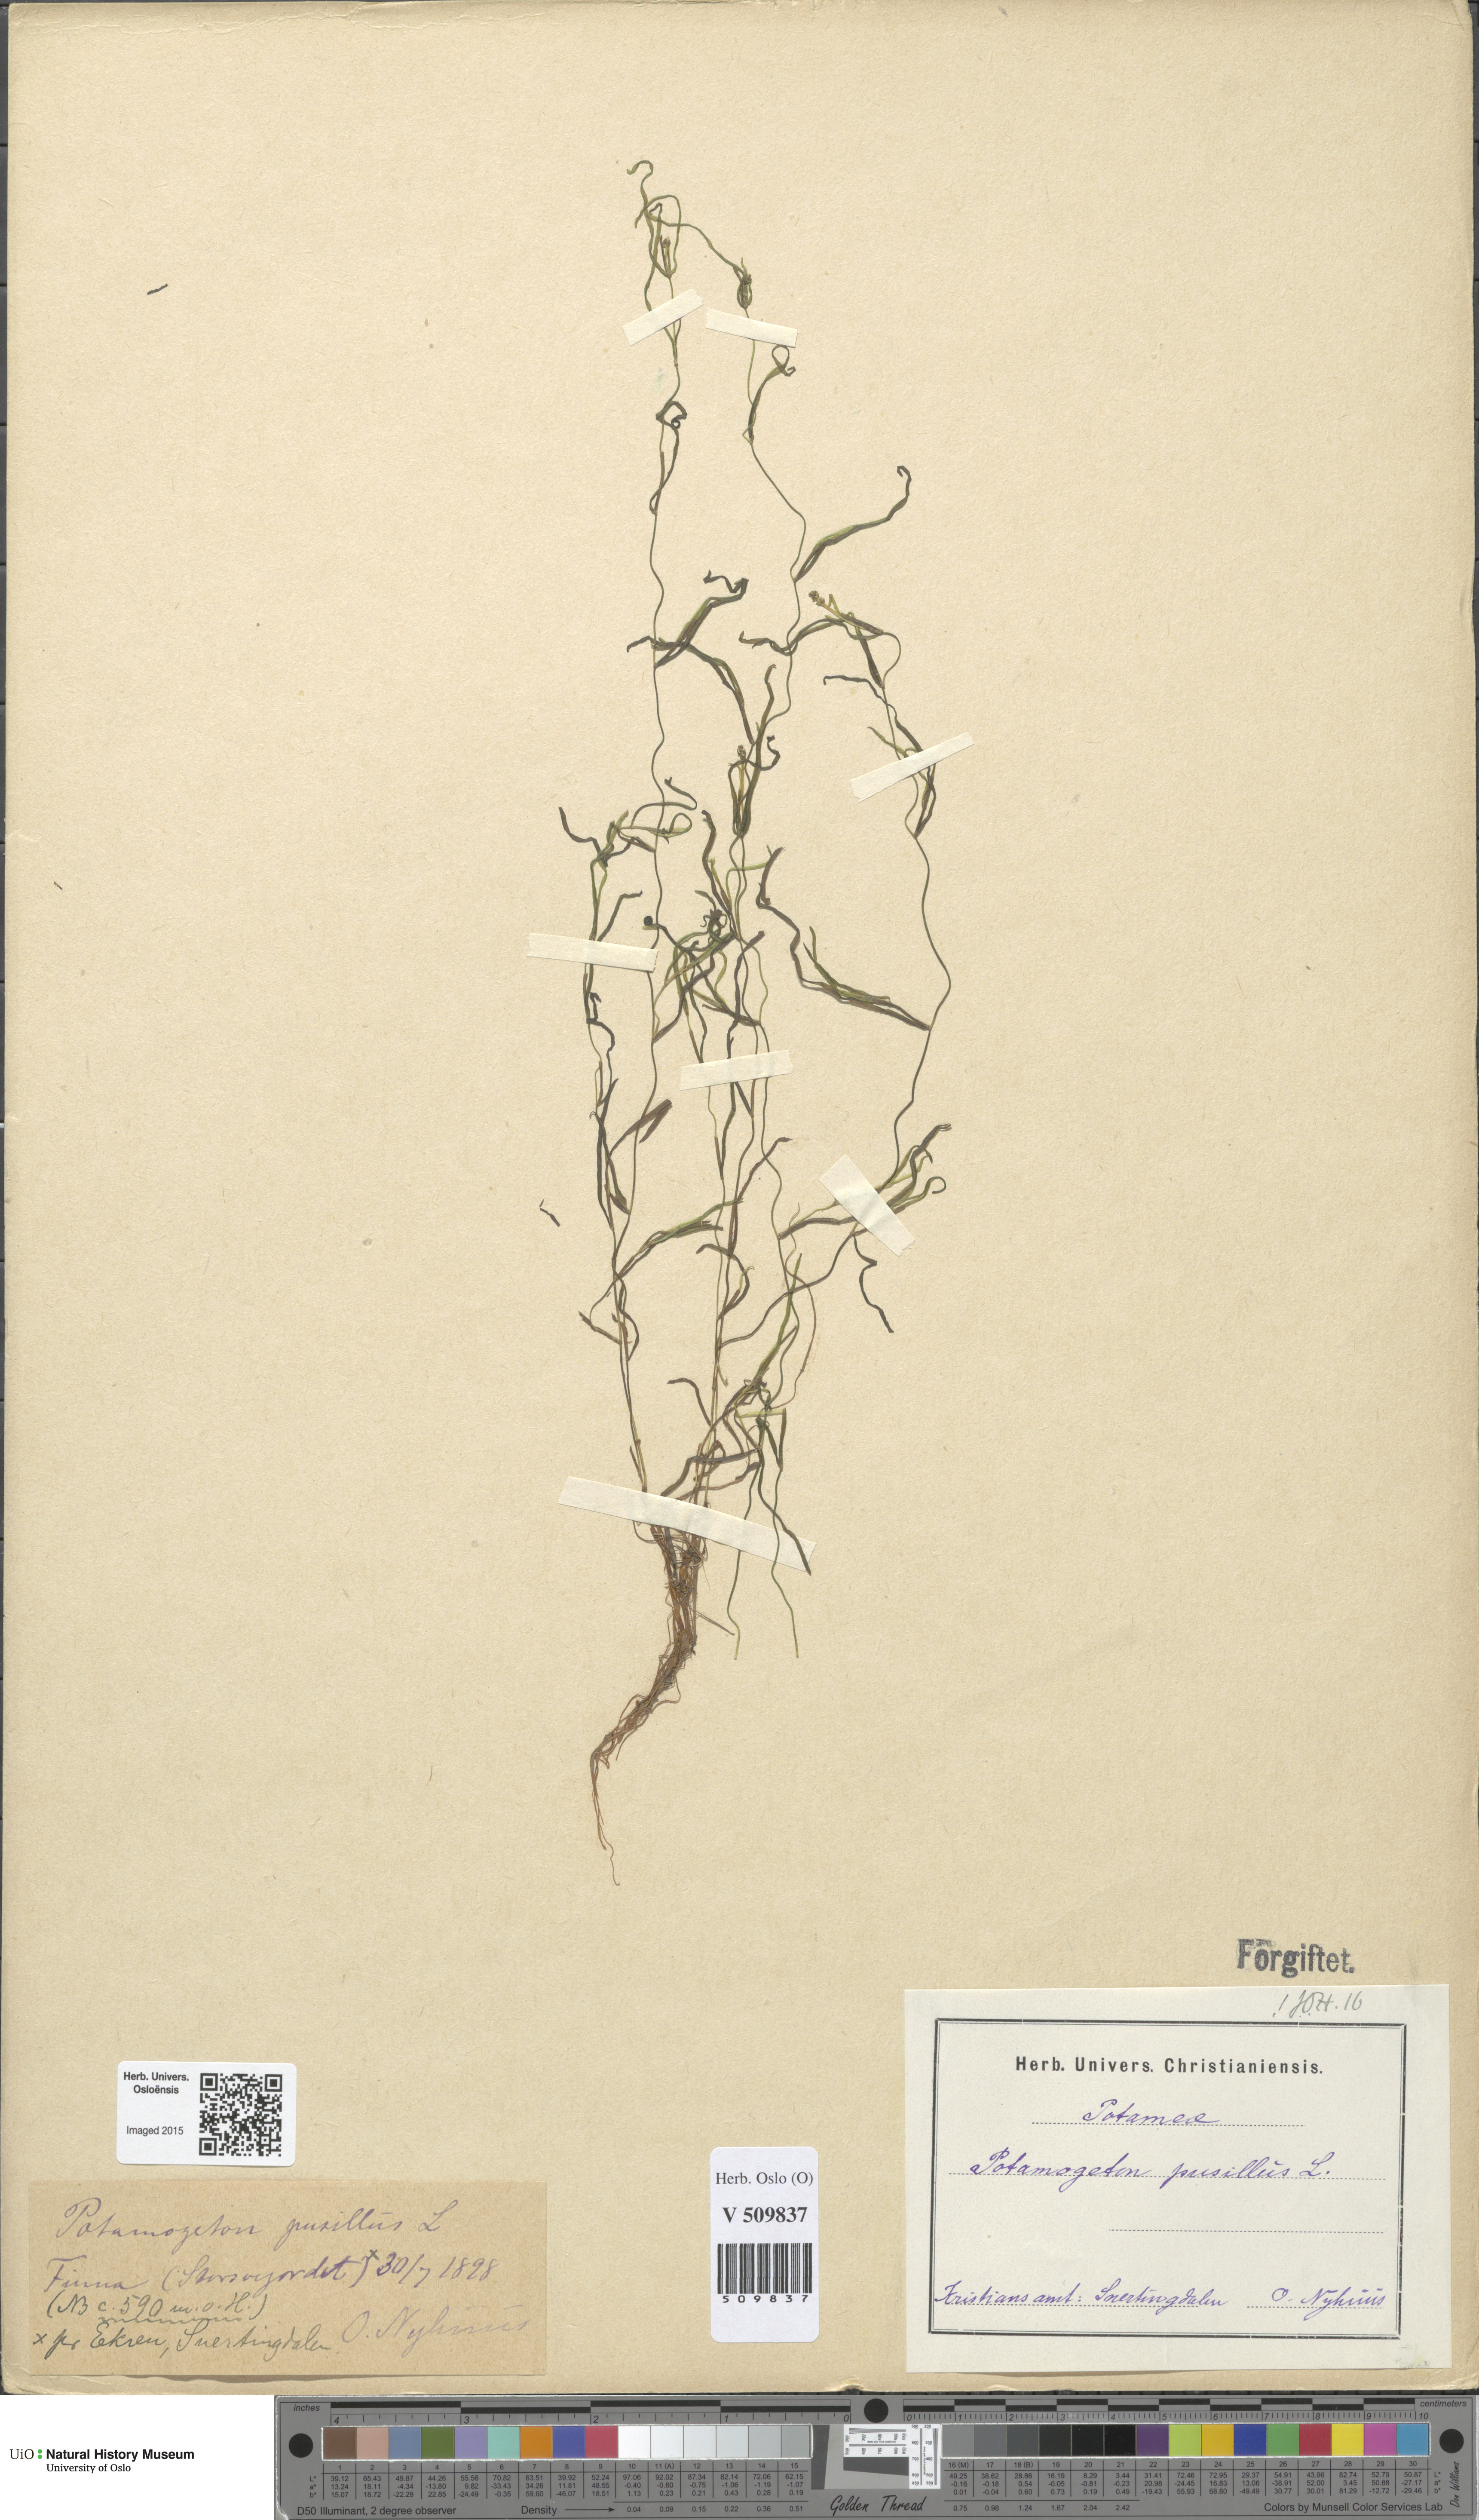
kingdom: Plantae
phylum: Tracheophyta
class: Liliopsida
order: Alismatales
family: Potamogetonaceae
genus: Potamogeton
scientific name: Potamogeton berchtoldii
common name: Small pondweed
